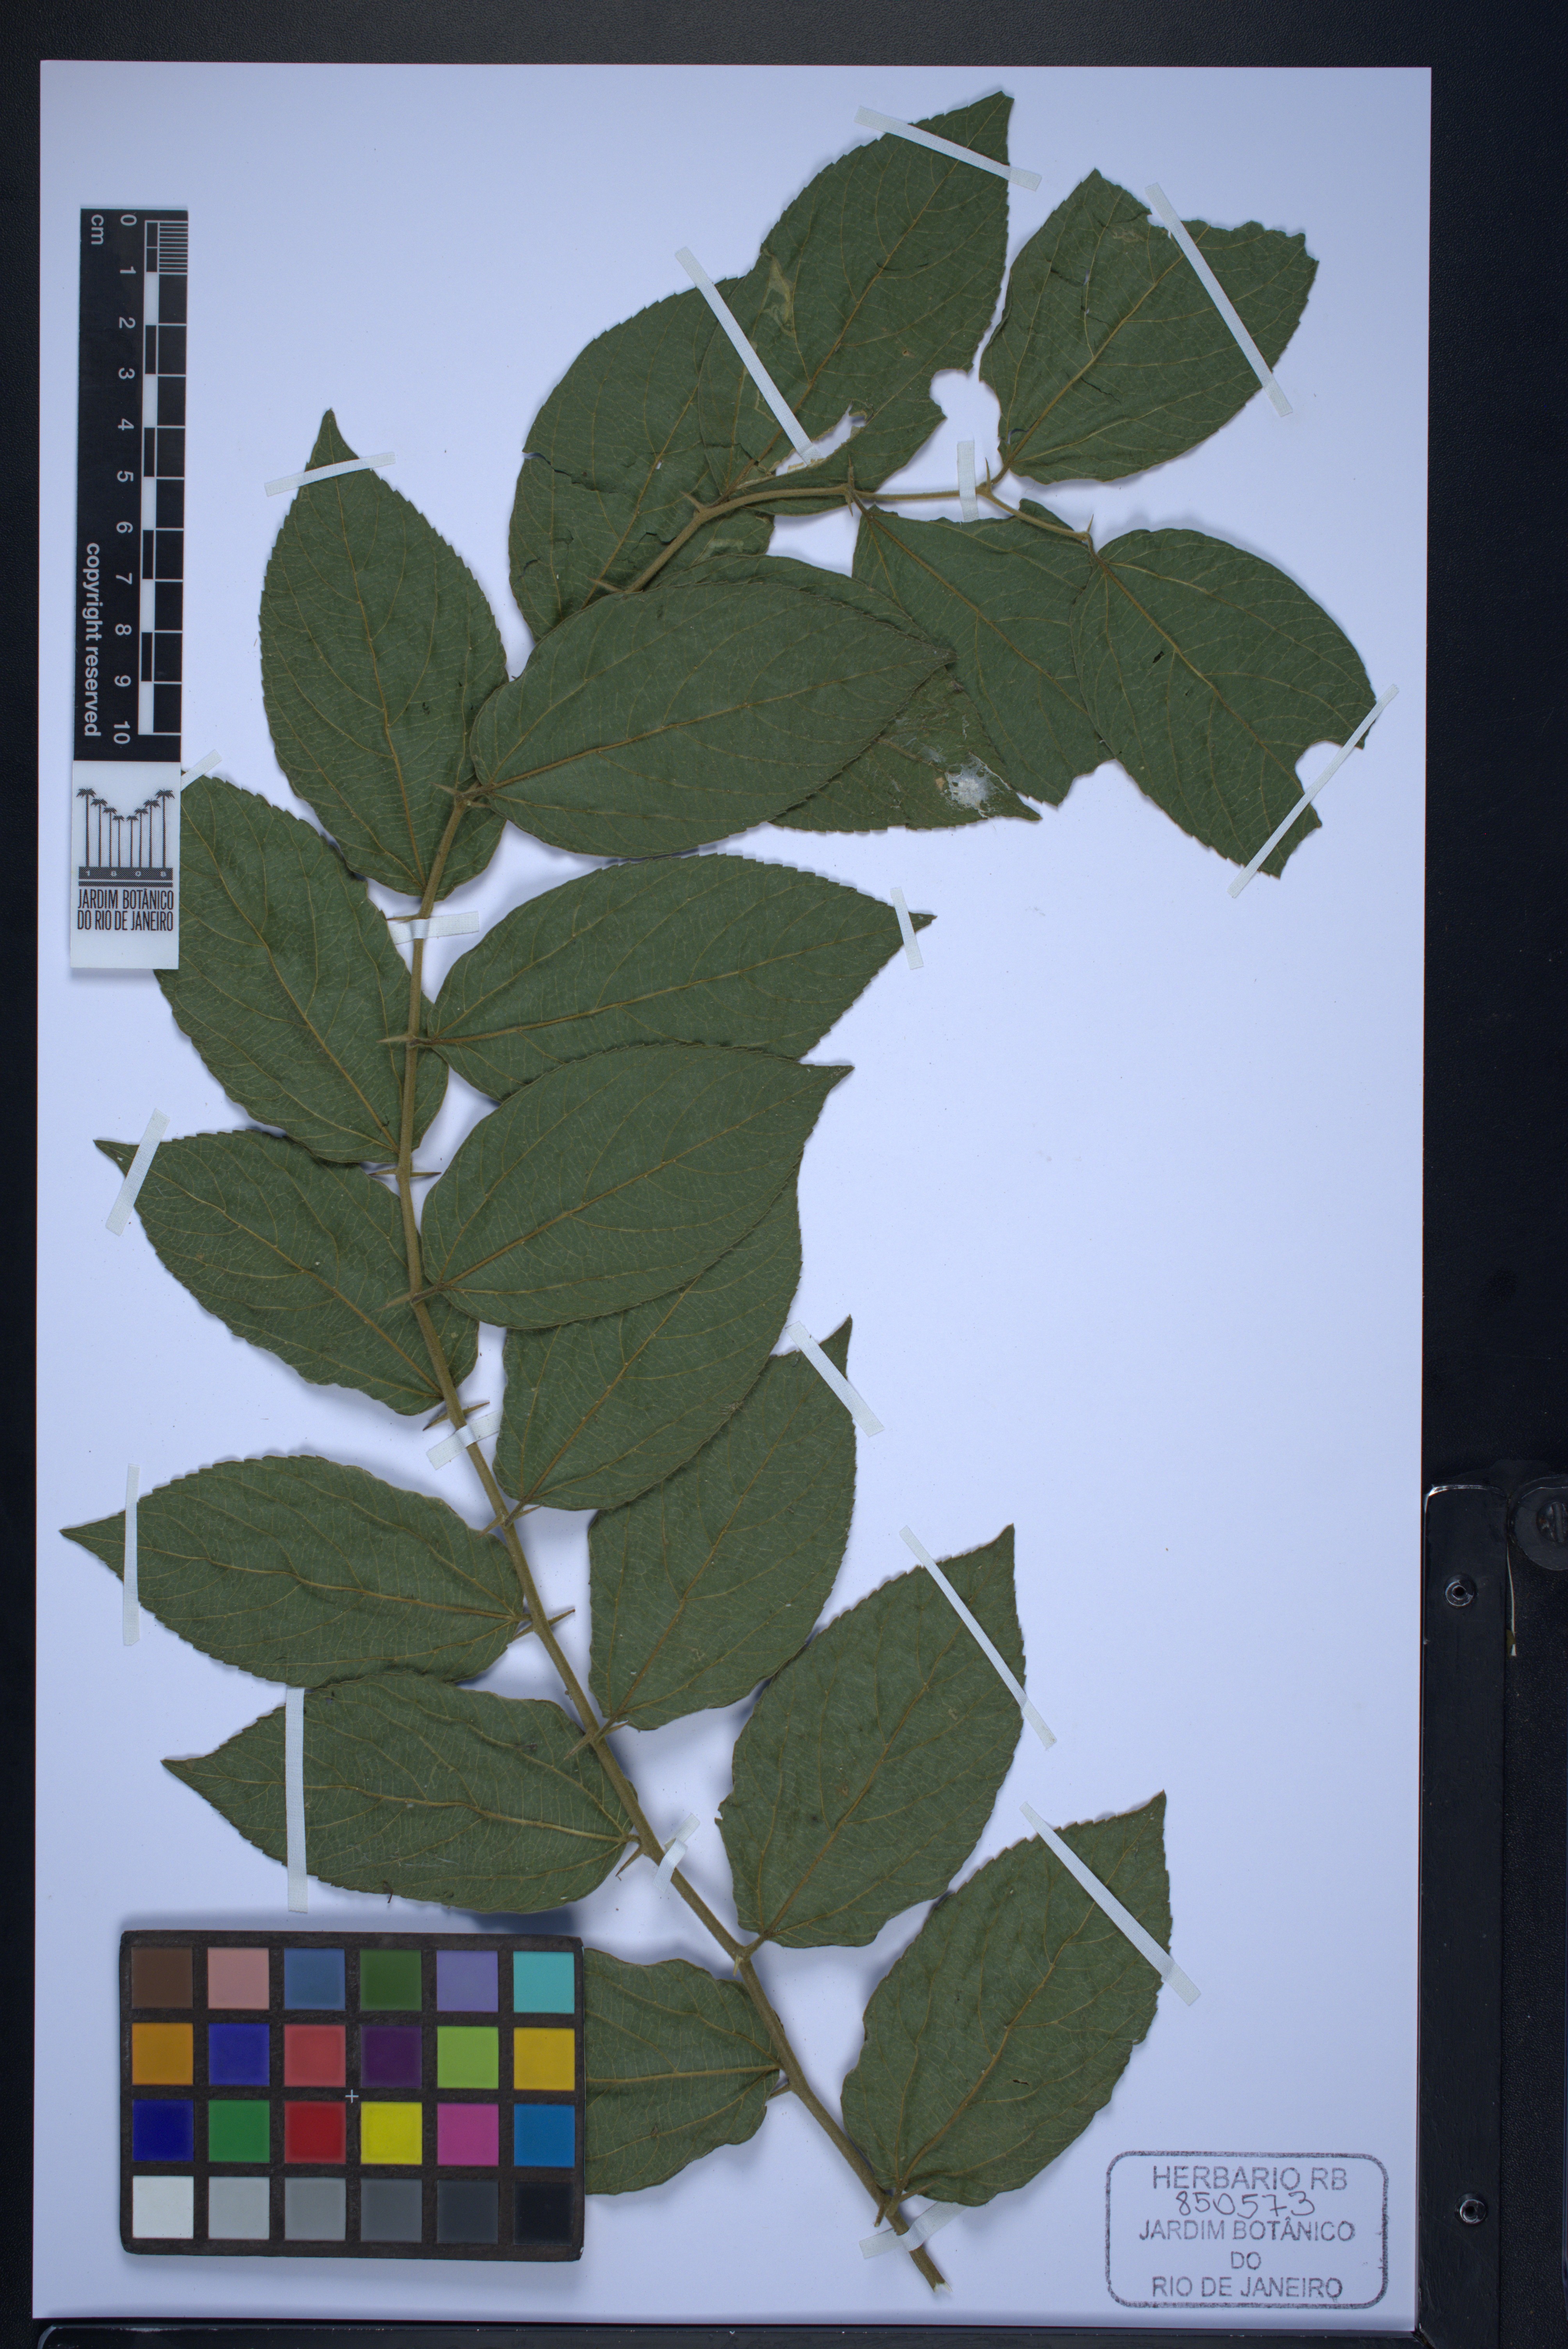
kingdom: Plantae
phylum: Tracheophyta
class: Magnoliopsida
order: Rosales
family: Cannabaceae
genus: Celtis
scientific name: Celtis
